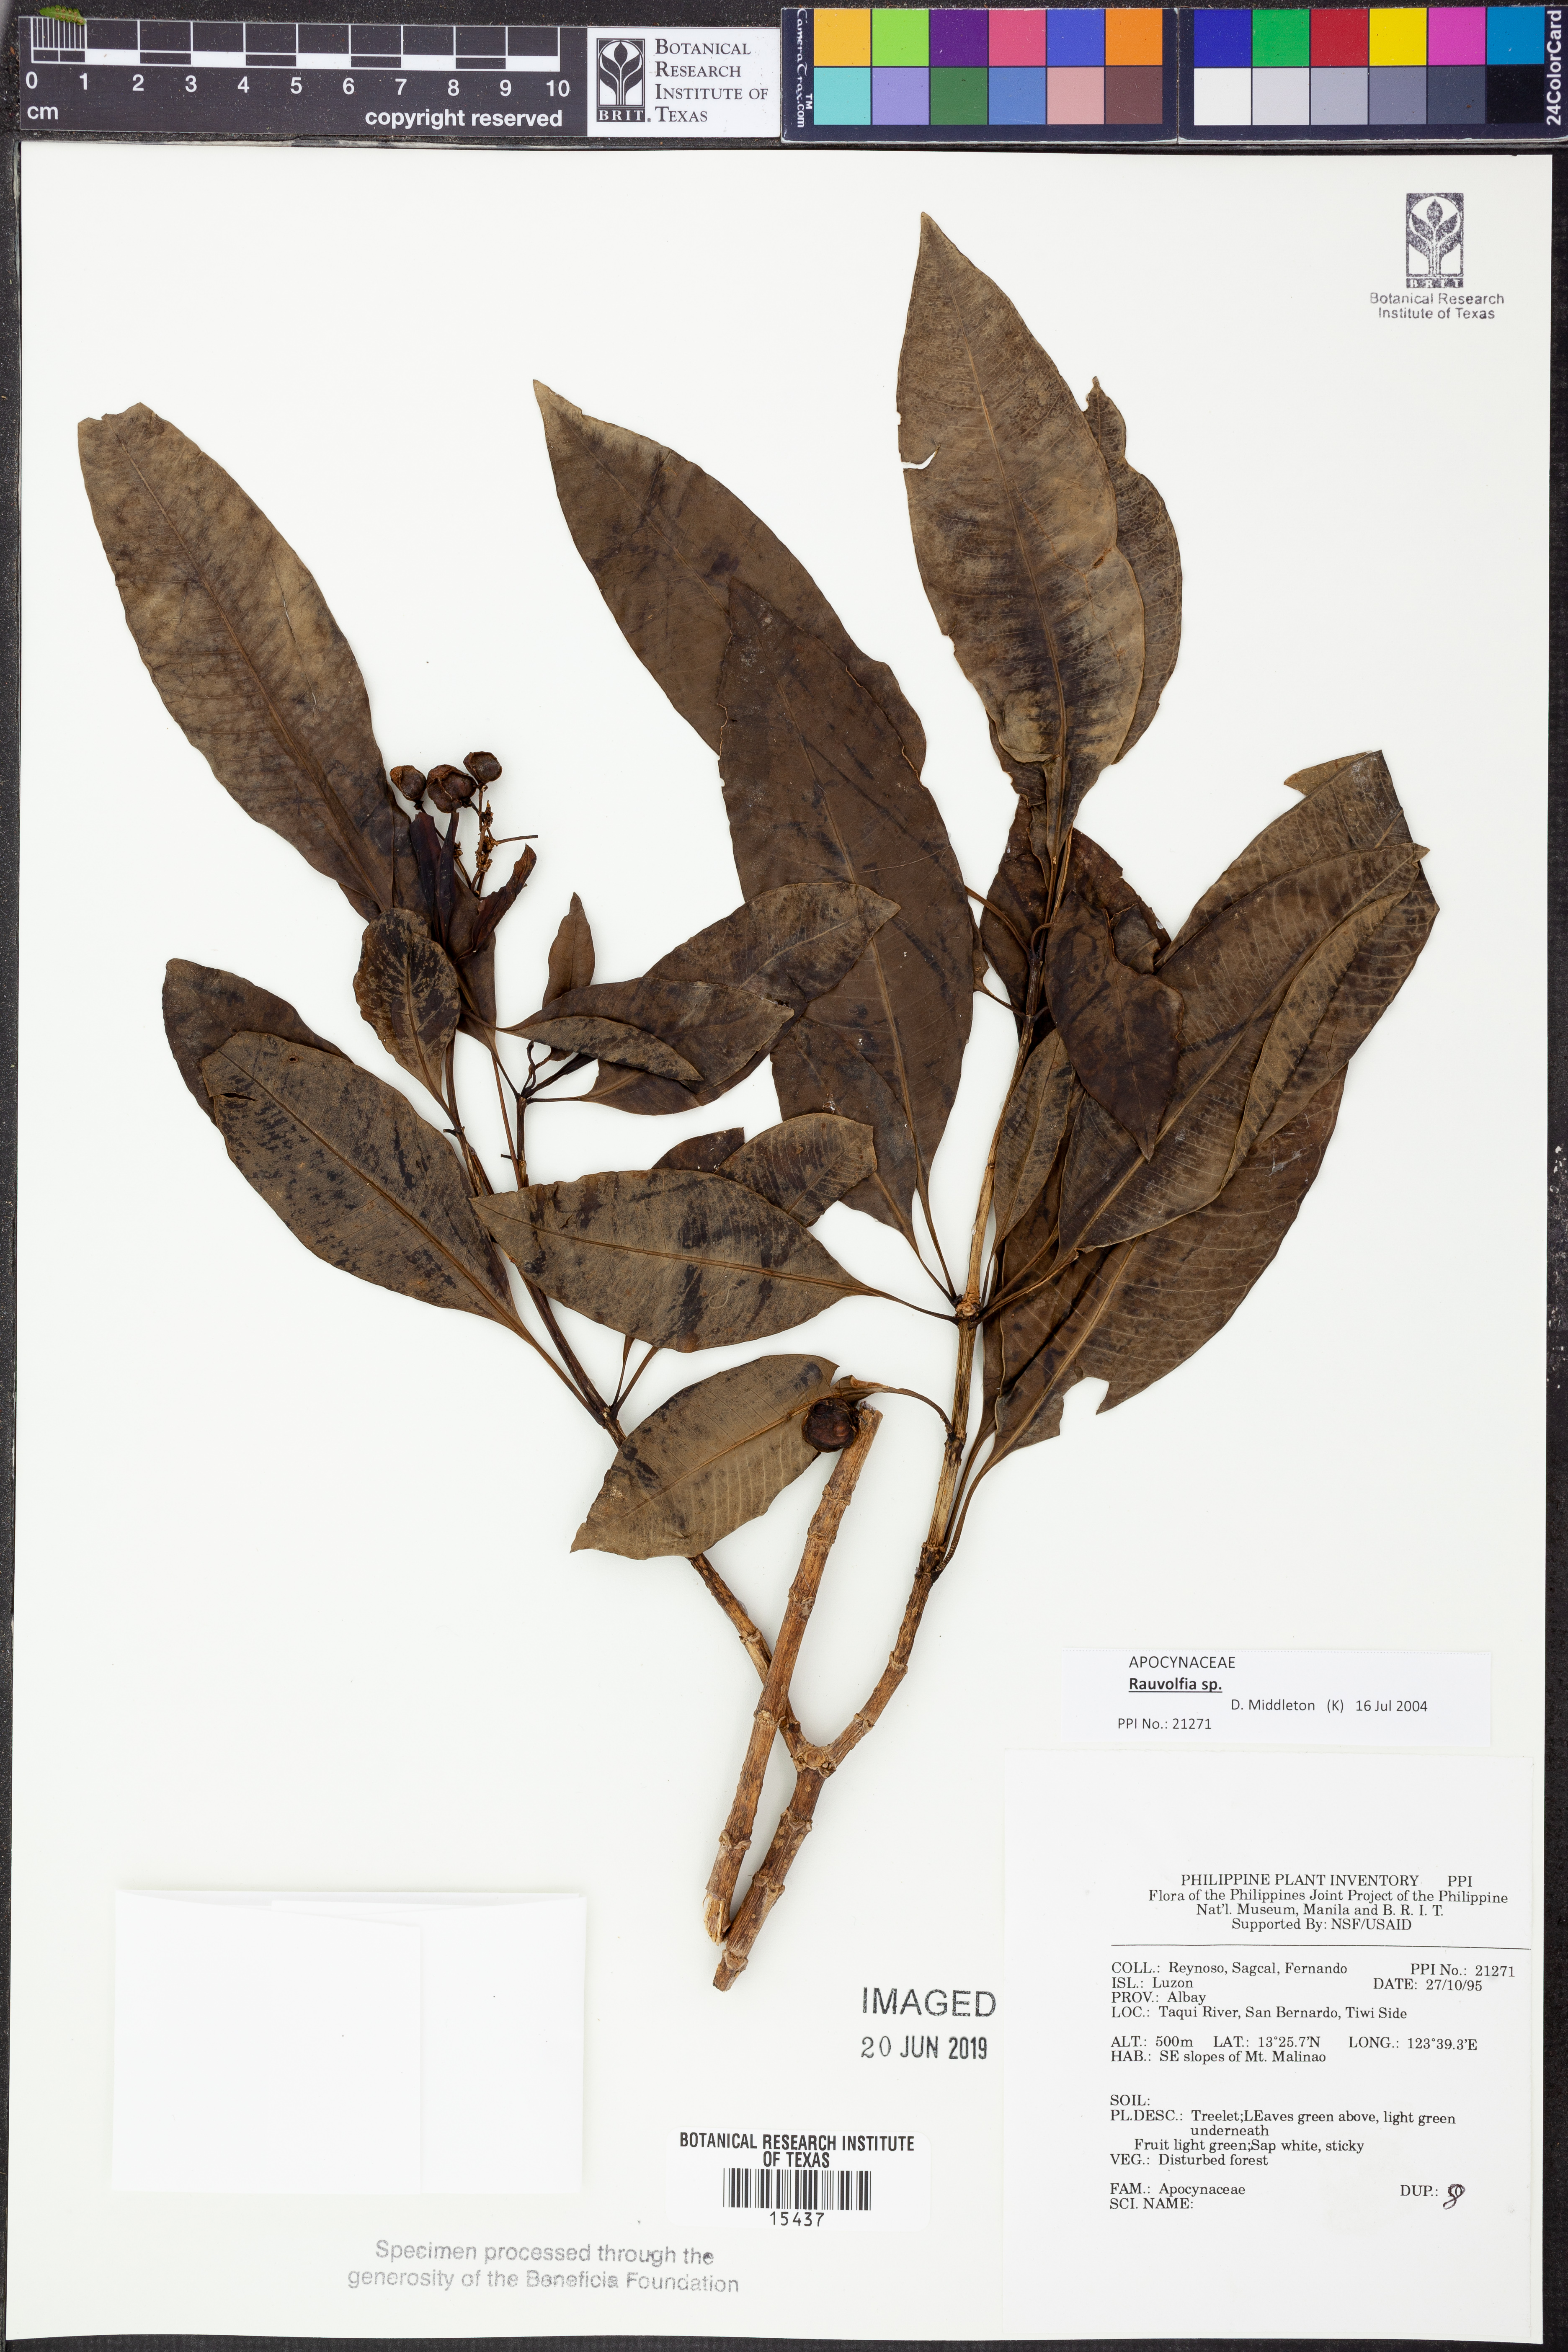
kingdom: Plantae
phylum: Tracheophyta
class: Magnoliopsida
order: Gentianales
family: Apocynaceae
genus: Rauvolfia
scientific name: Rauvolfia
